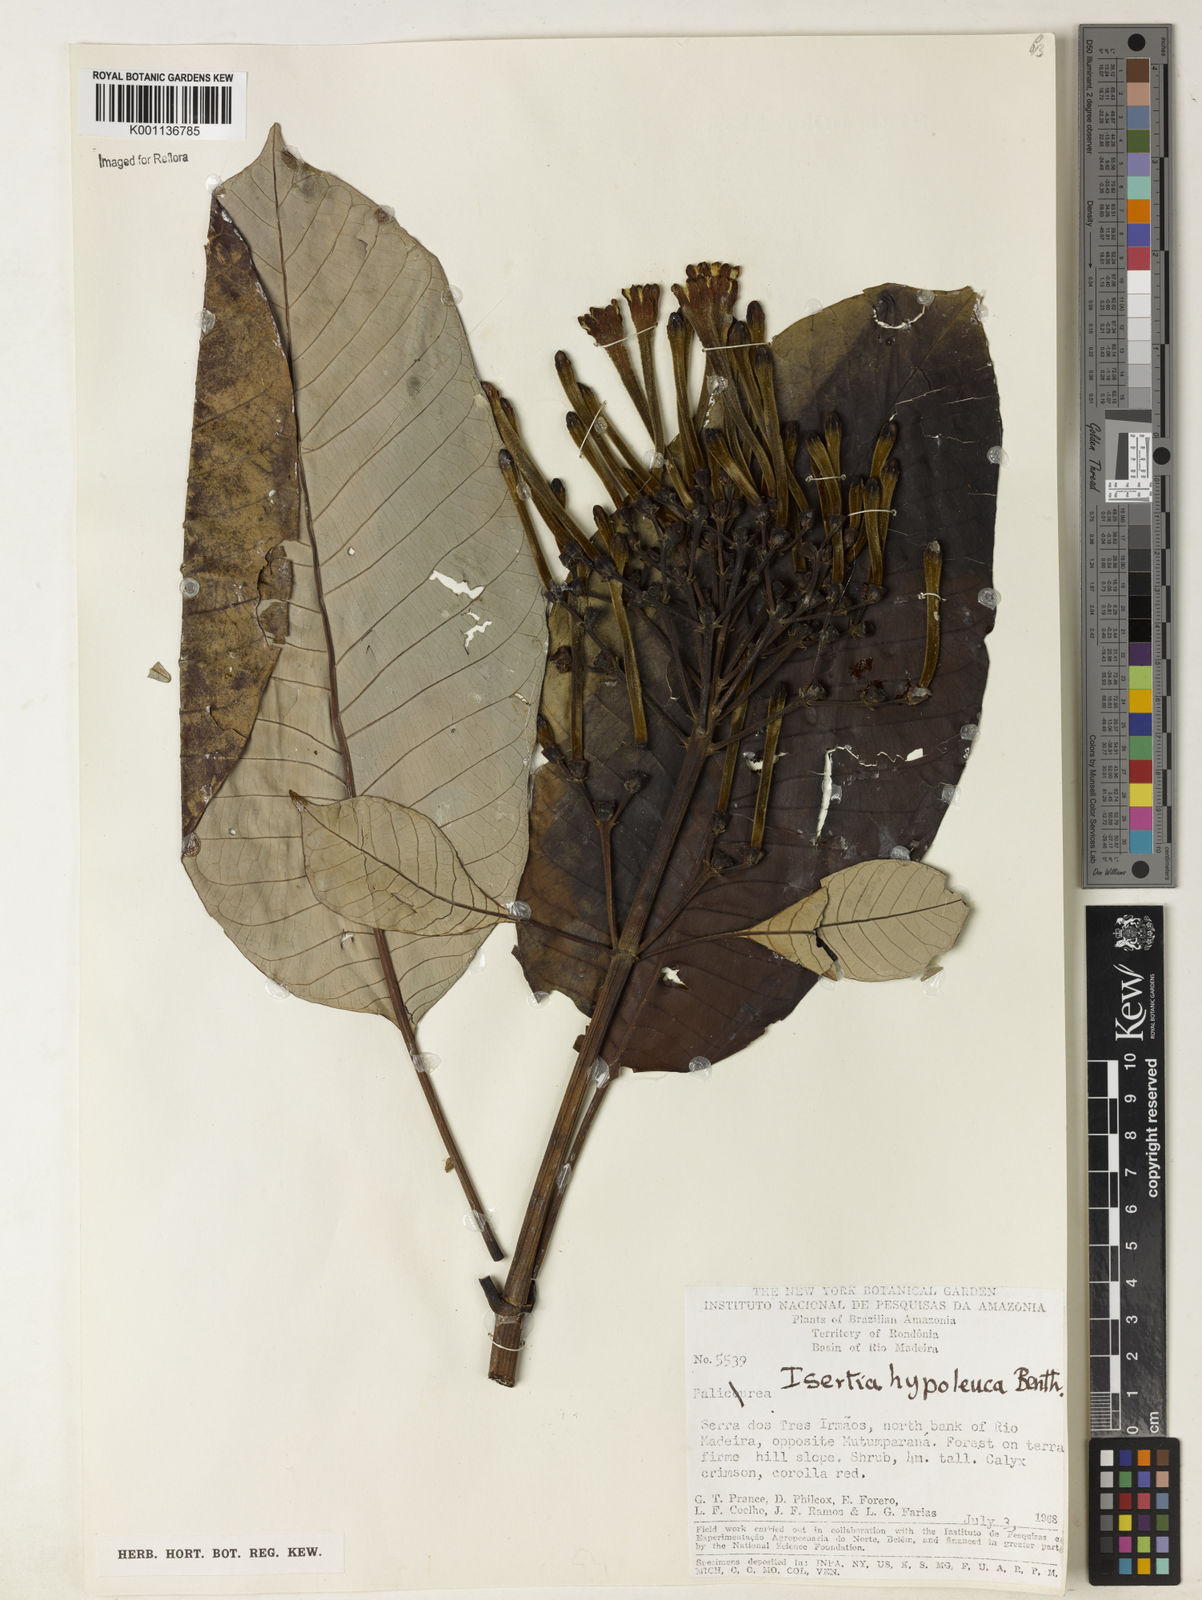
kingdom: Plantae
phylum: Tracheophyta
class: Magnoliopsida
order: Gentianales
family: Rubiaceae
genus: Isertia
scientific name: Isertia hypoleuca
